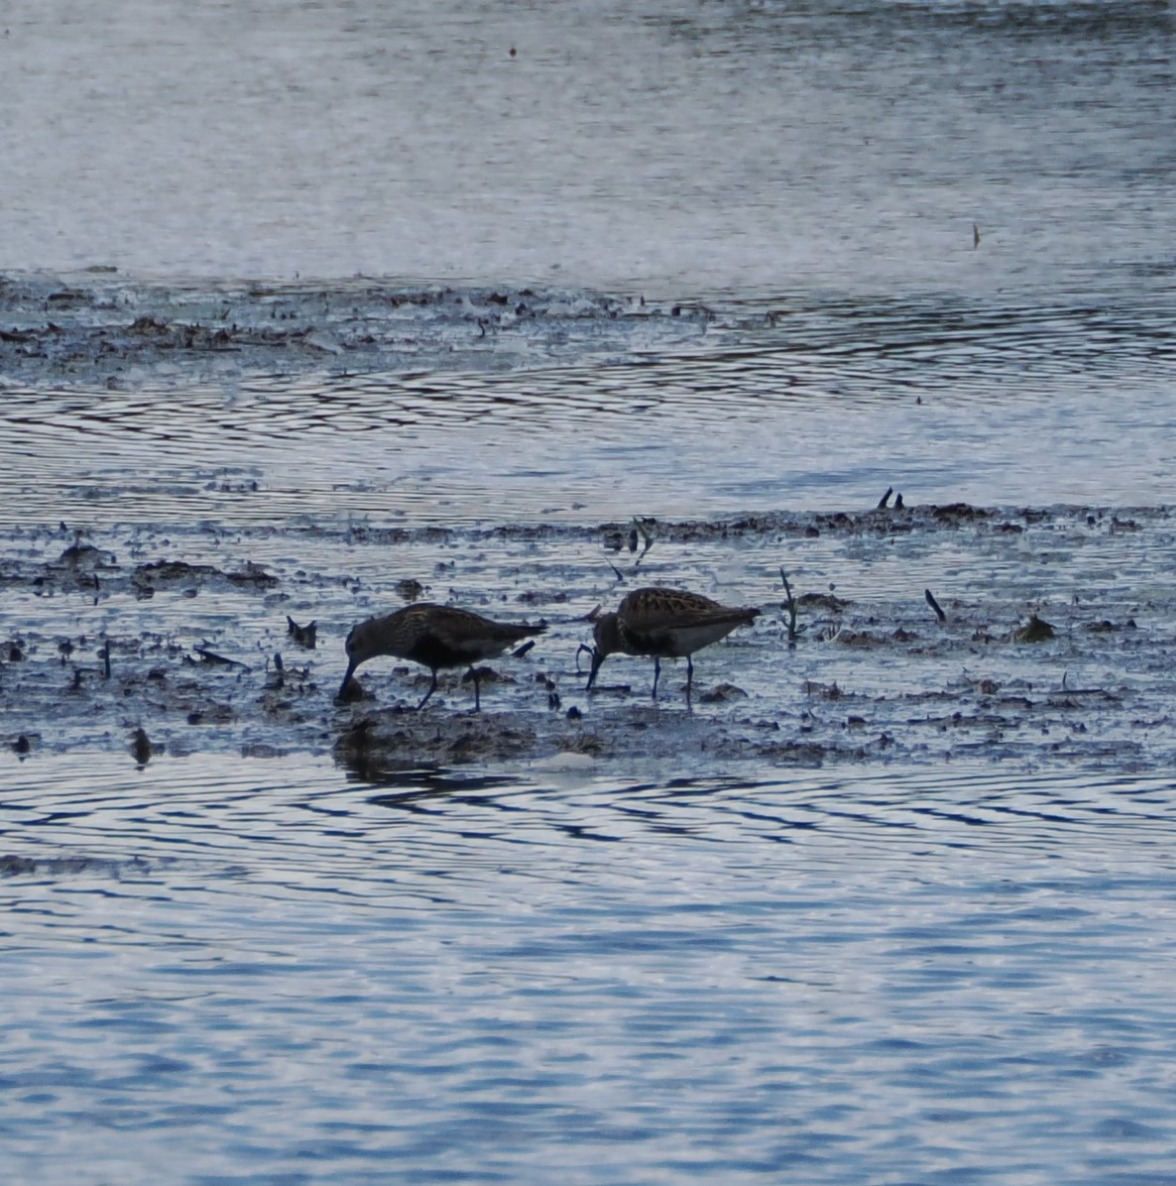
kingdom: Animalia
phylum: Chordata
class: Aves
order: Charadriiformes
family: Scolopacidae
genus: Calidris
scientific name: Calidris alpina
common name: Almindelig ryle
